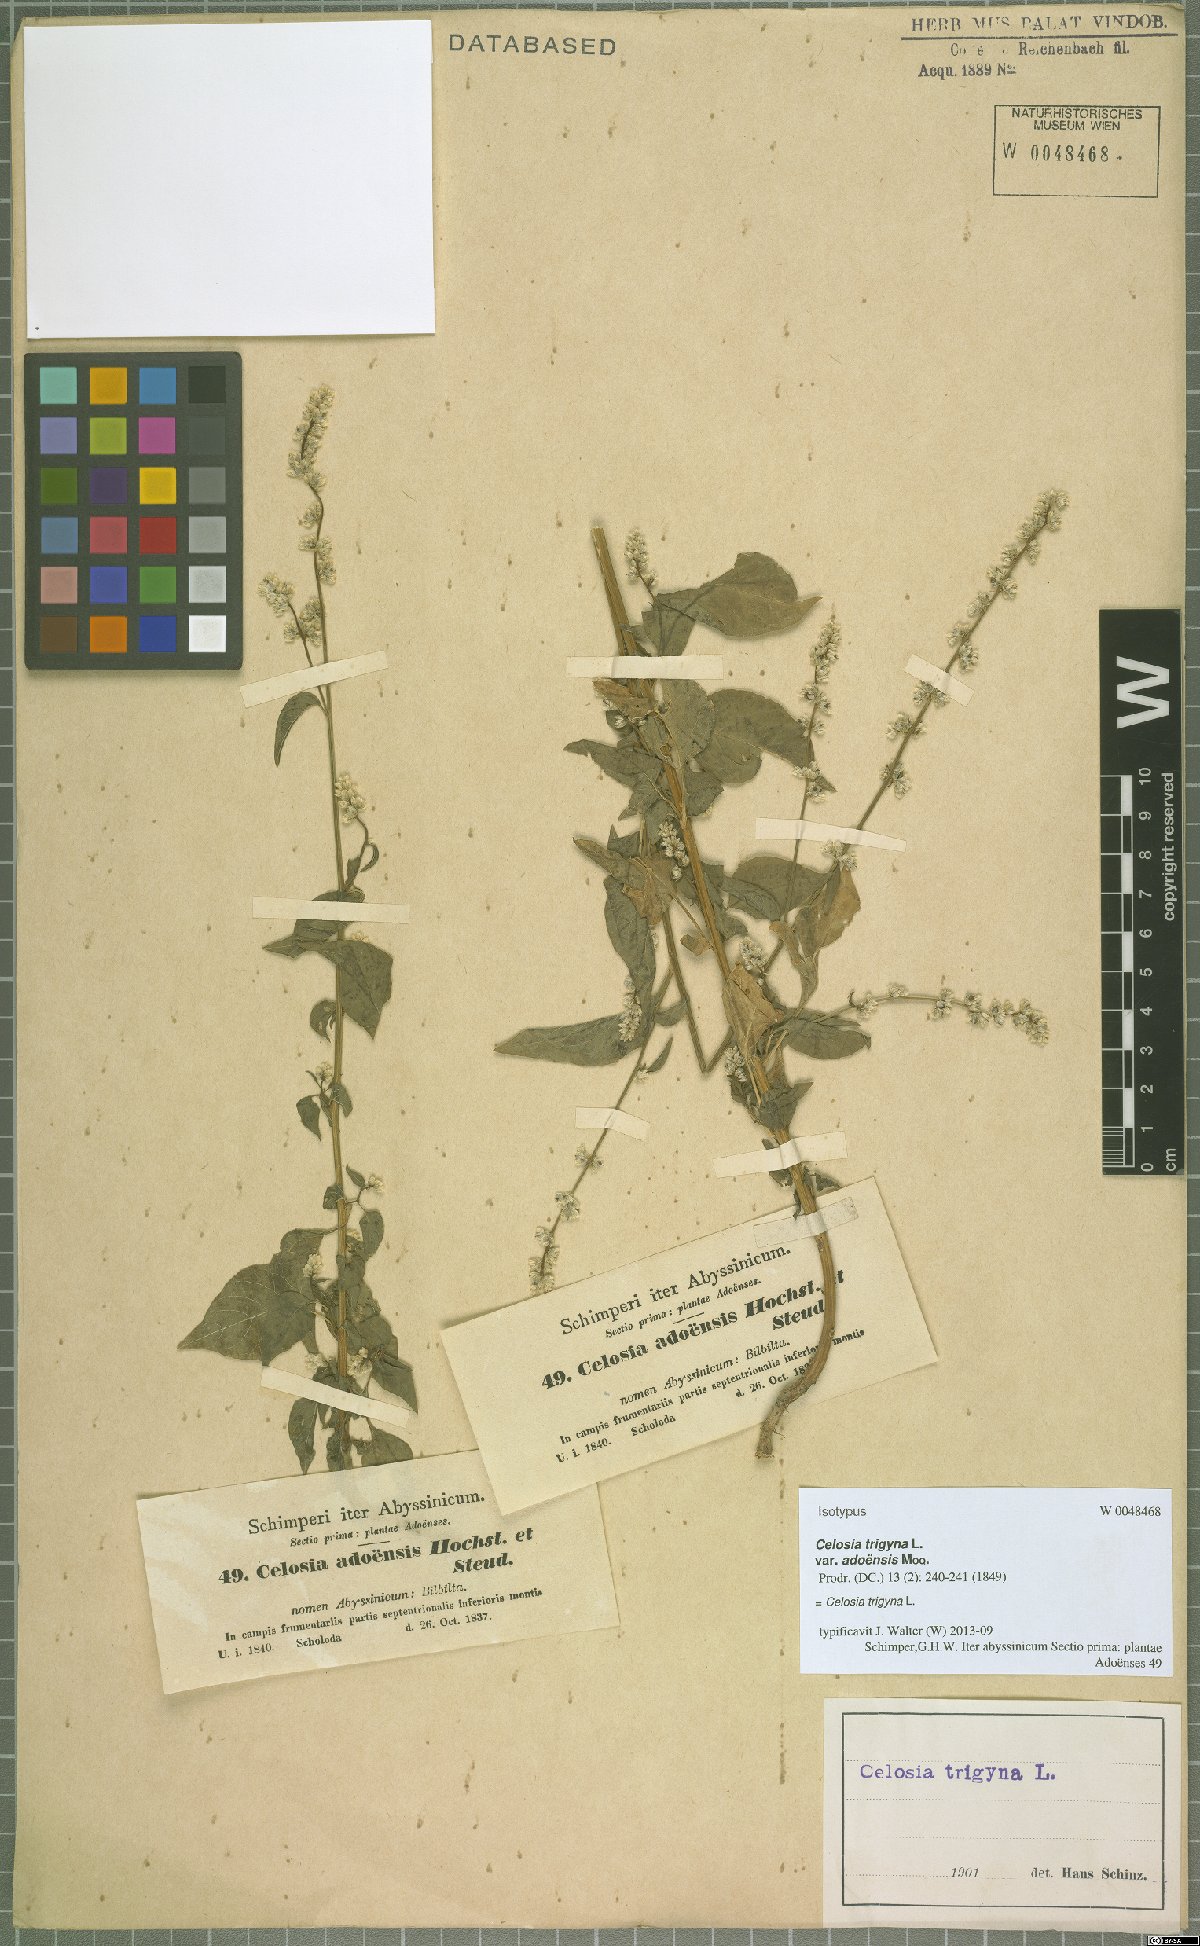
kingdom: Plantae
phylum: Tracheophyta
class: Magnoliopsida
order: Caryophyllales
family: Amaranthaceae
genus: Celosia
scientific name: Celosia trigyna
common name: Woolflower
